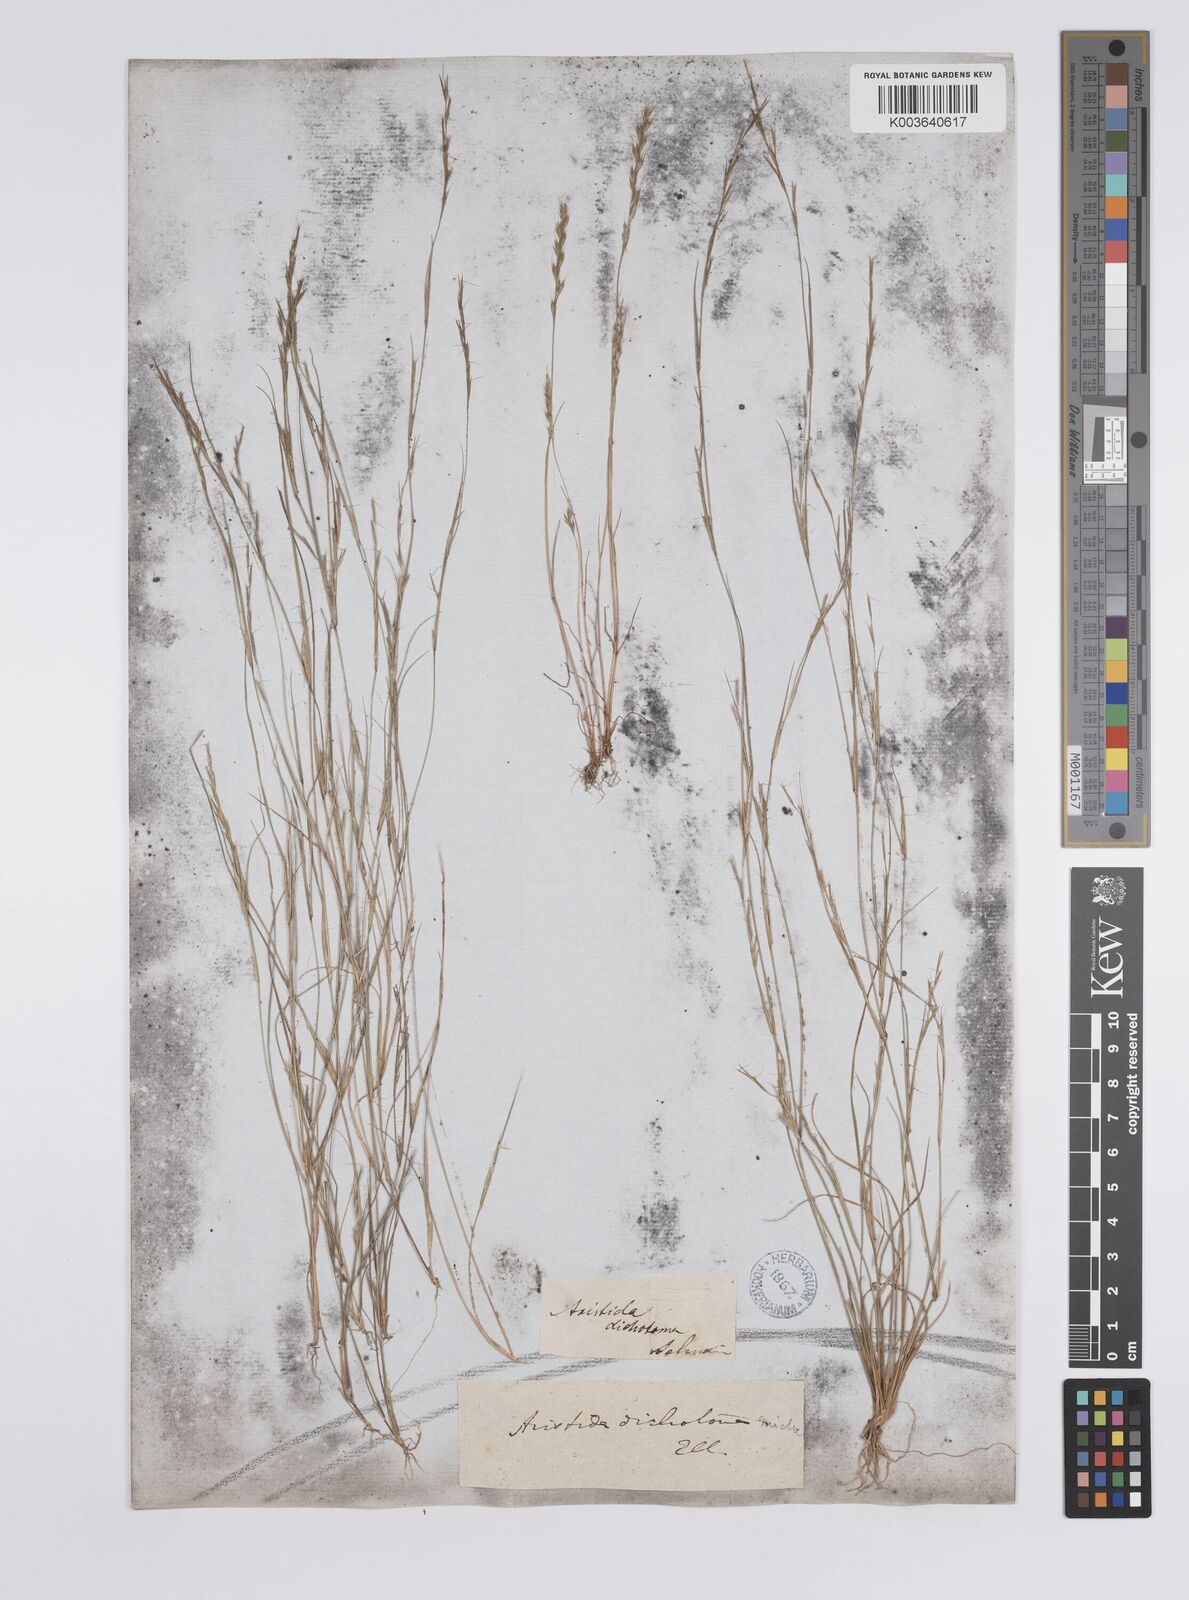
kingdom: Plantae
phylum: Tracheophyta
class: Liliopsida
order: Poales
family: Poaceae
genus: Aristida
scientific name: Aristida dichotoma
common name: Churchmouse three-awn
